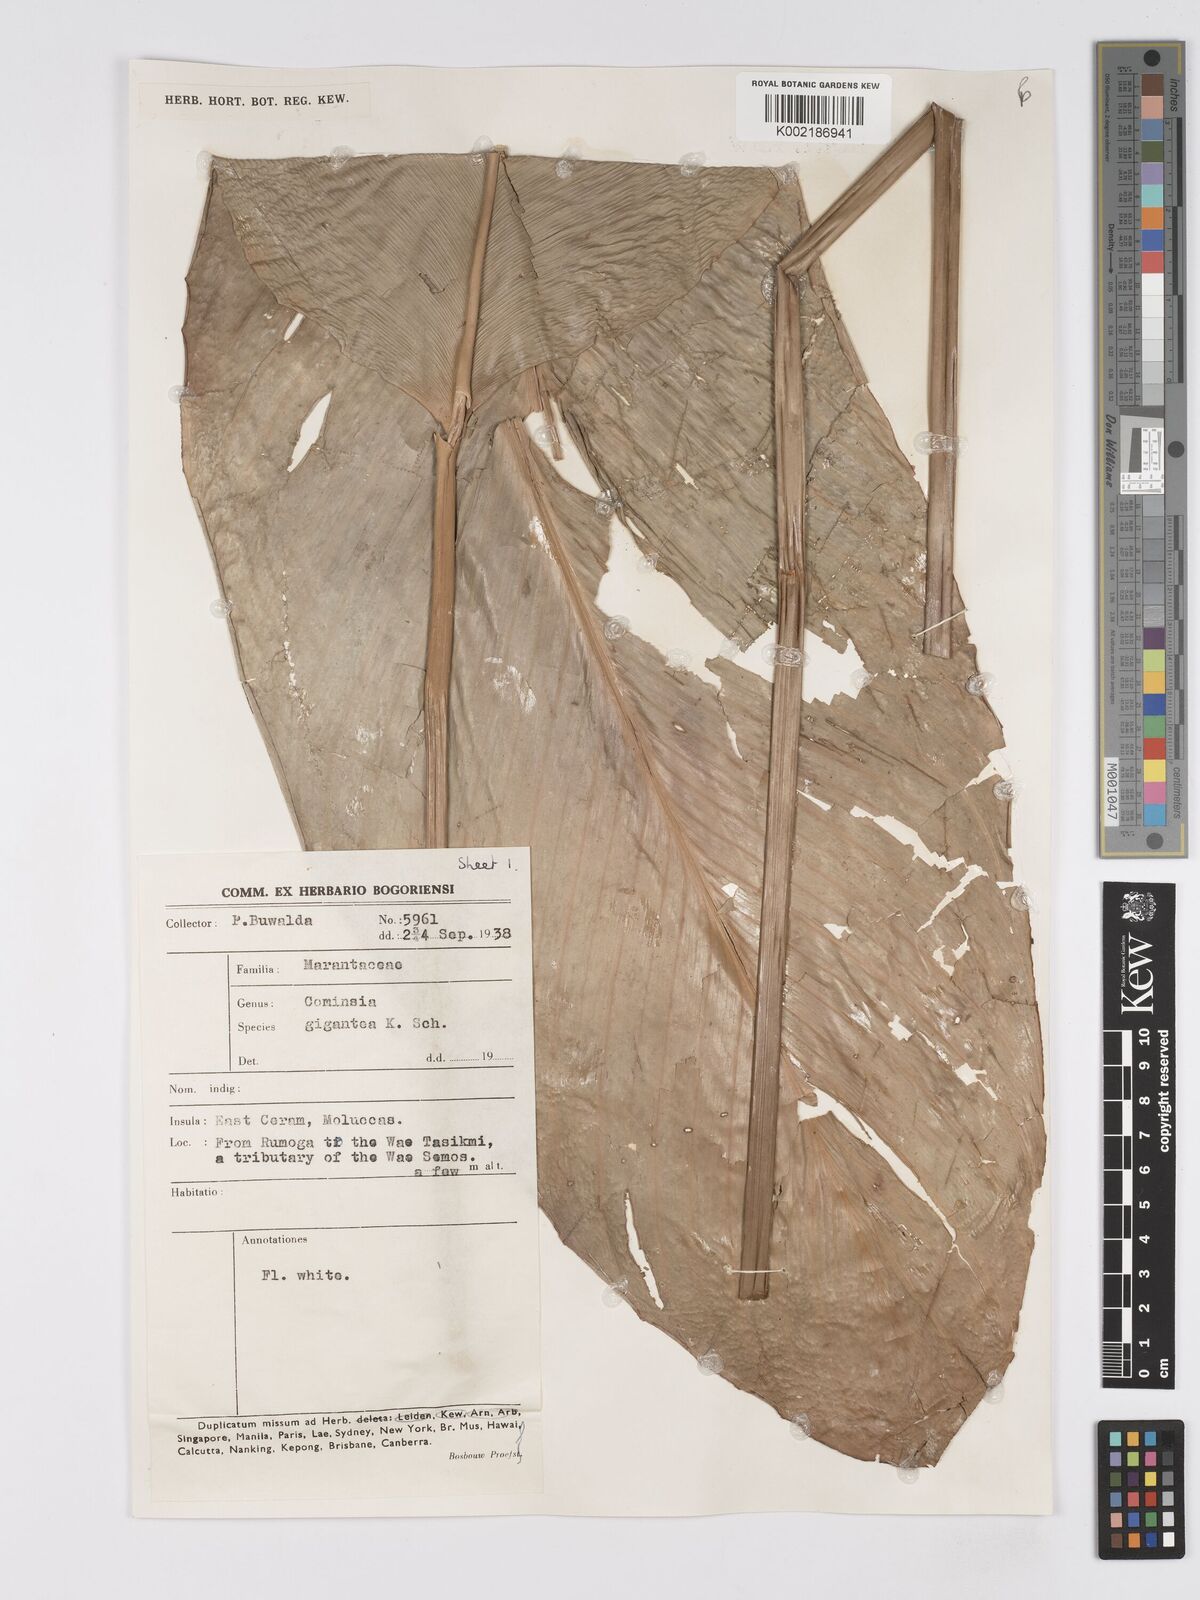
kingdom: Plantae
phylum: Tracheophyta
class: Liliopsida
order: Zingiberales
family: Marantaceae
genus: Phrynium
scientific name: Phrynium giganteum
